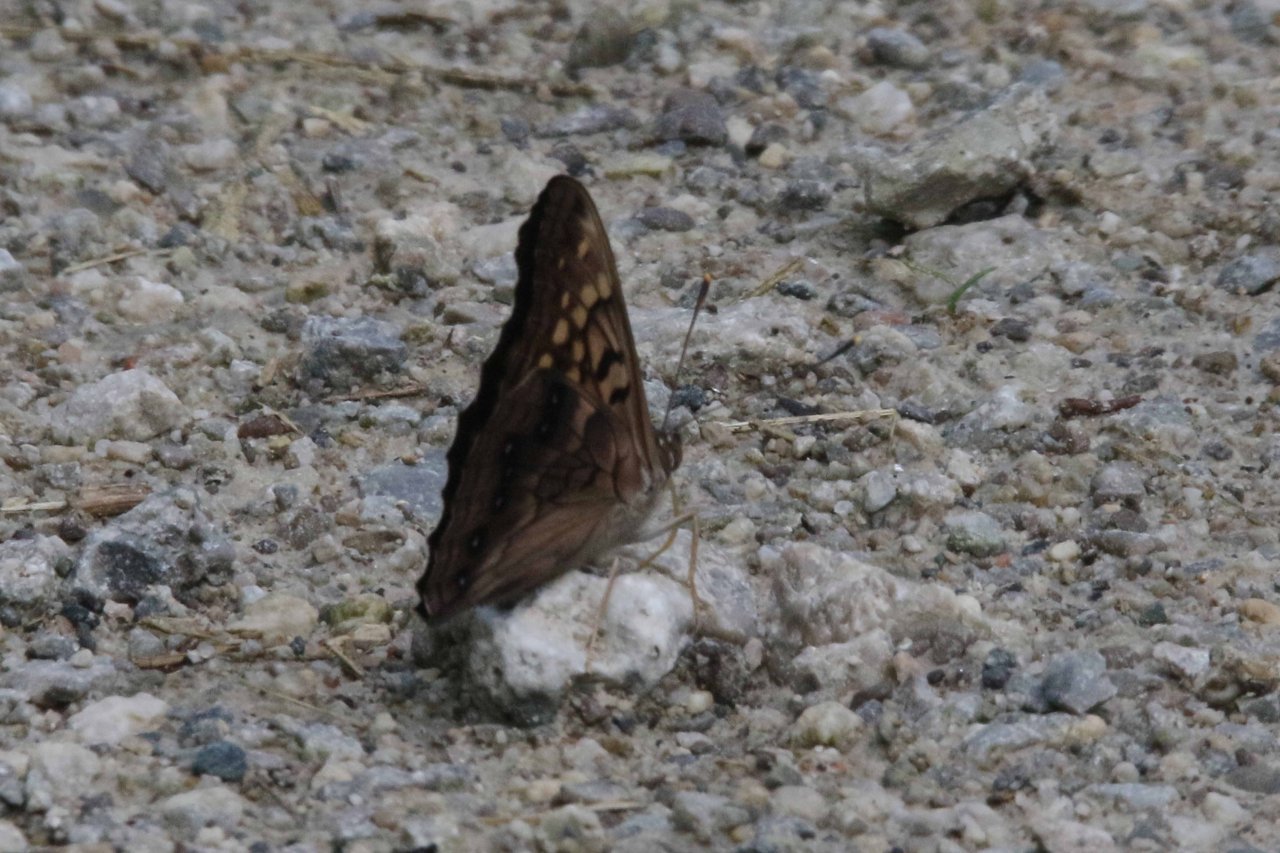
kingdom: Animalia
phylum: Arthropoda
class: Insecta
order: Lepidoptera
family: Nymphalidae
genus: Asterocampa
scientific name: Asterocampa clyton
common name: Tawny Emperor
